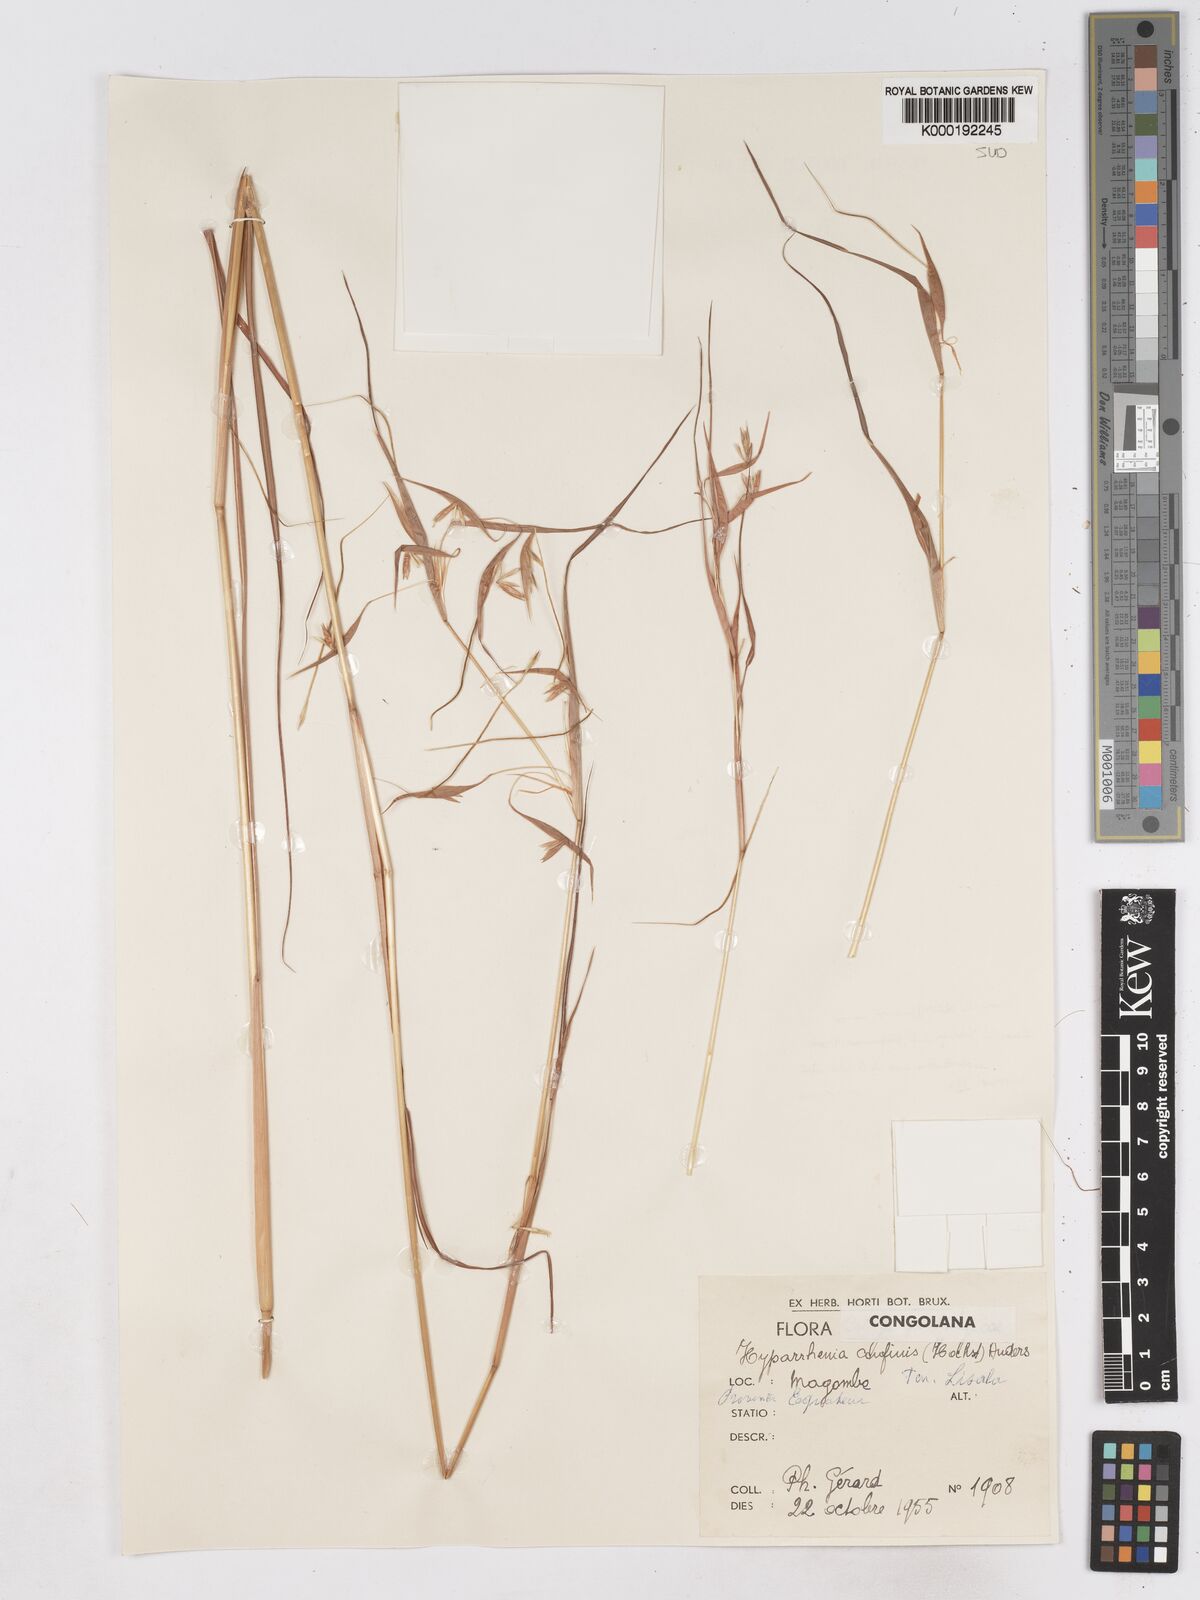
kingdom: Plantae
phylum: Tracheophyta
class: Liliopsida
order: Poales
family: Poaceae
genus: Hyperthelia
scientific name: Hyperthelia cornucopiae
